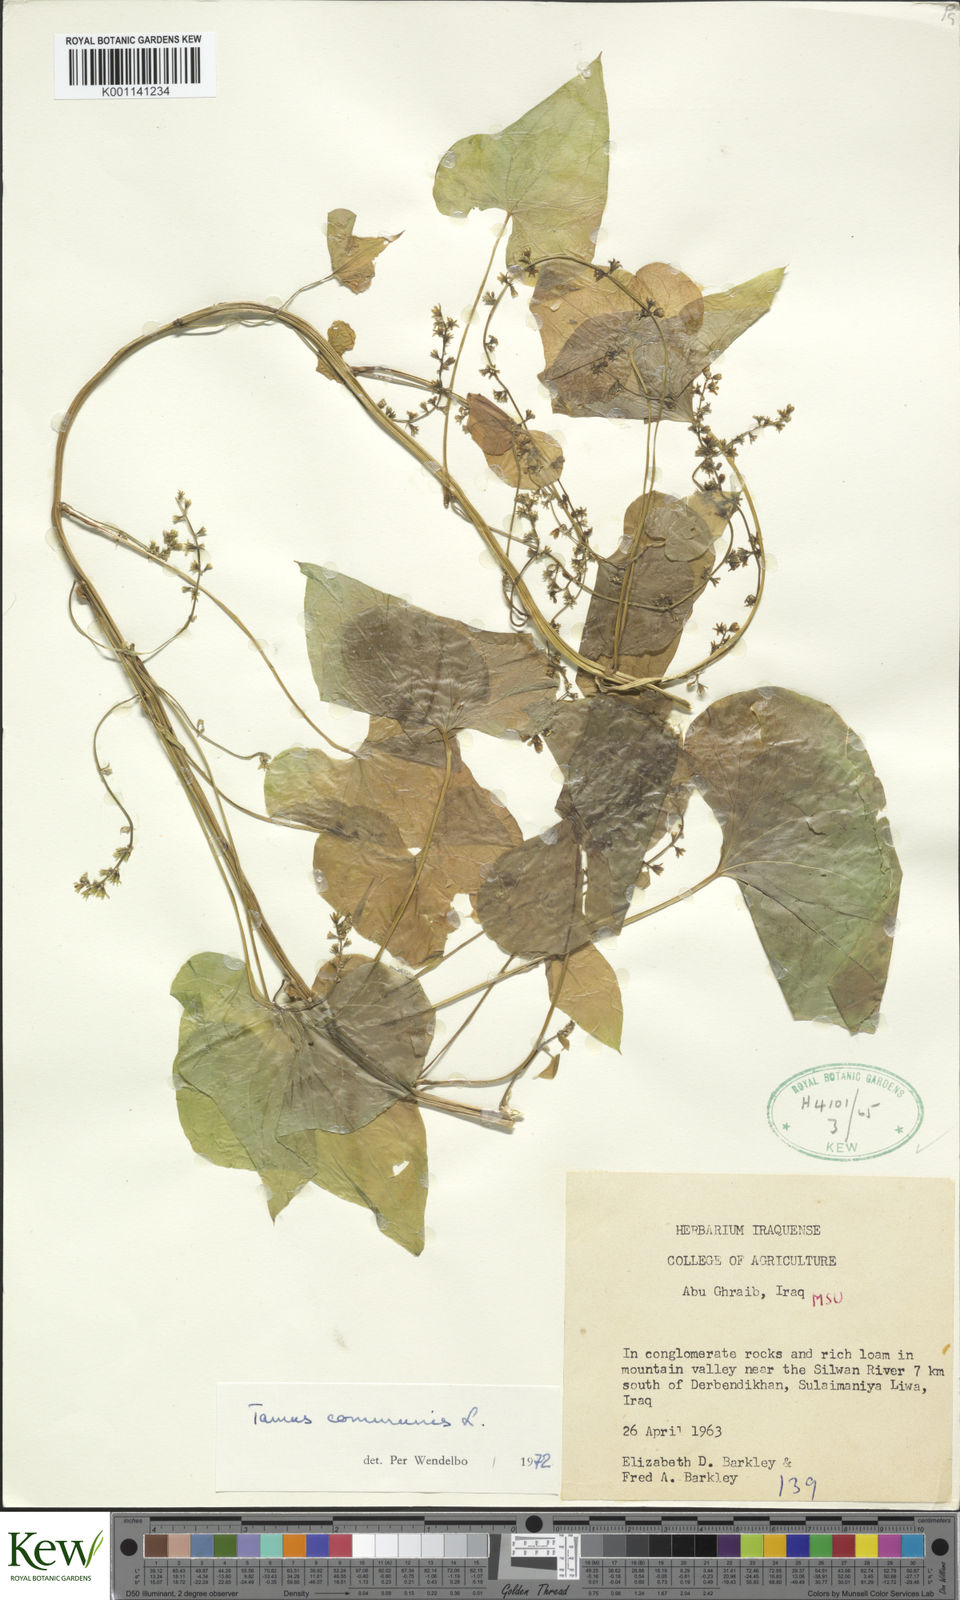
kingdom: Plantae
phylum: Tracheophyta
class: Liliopsida
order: Dioscoreales
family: Dioscoreaceae
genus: Dioscorea
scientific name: Dioscorea communis
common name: Black-bindweed
